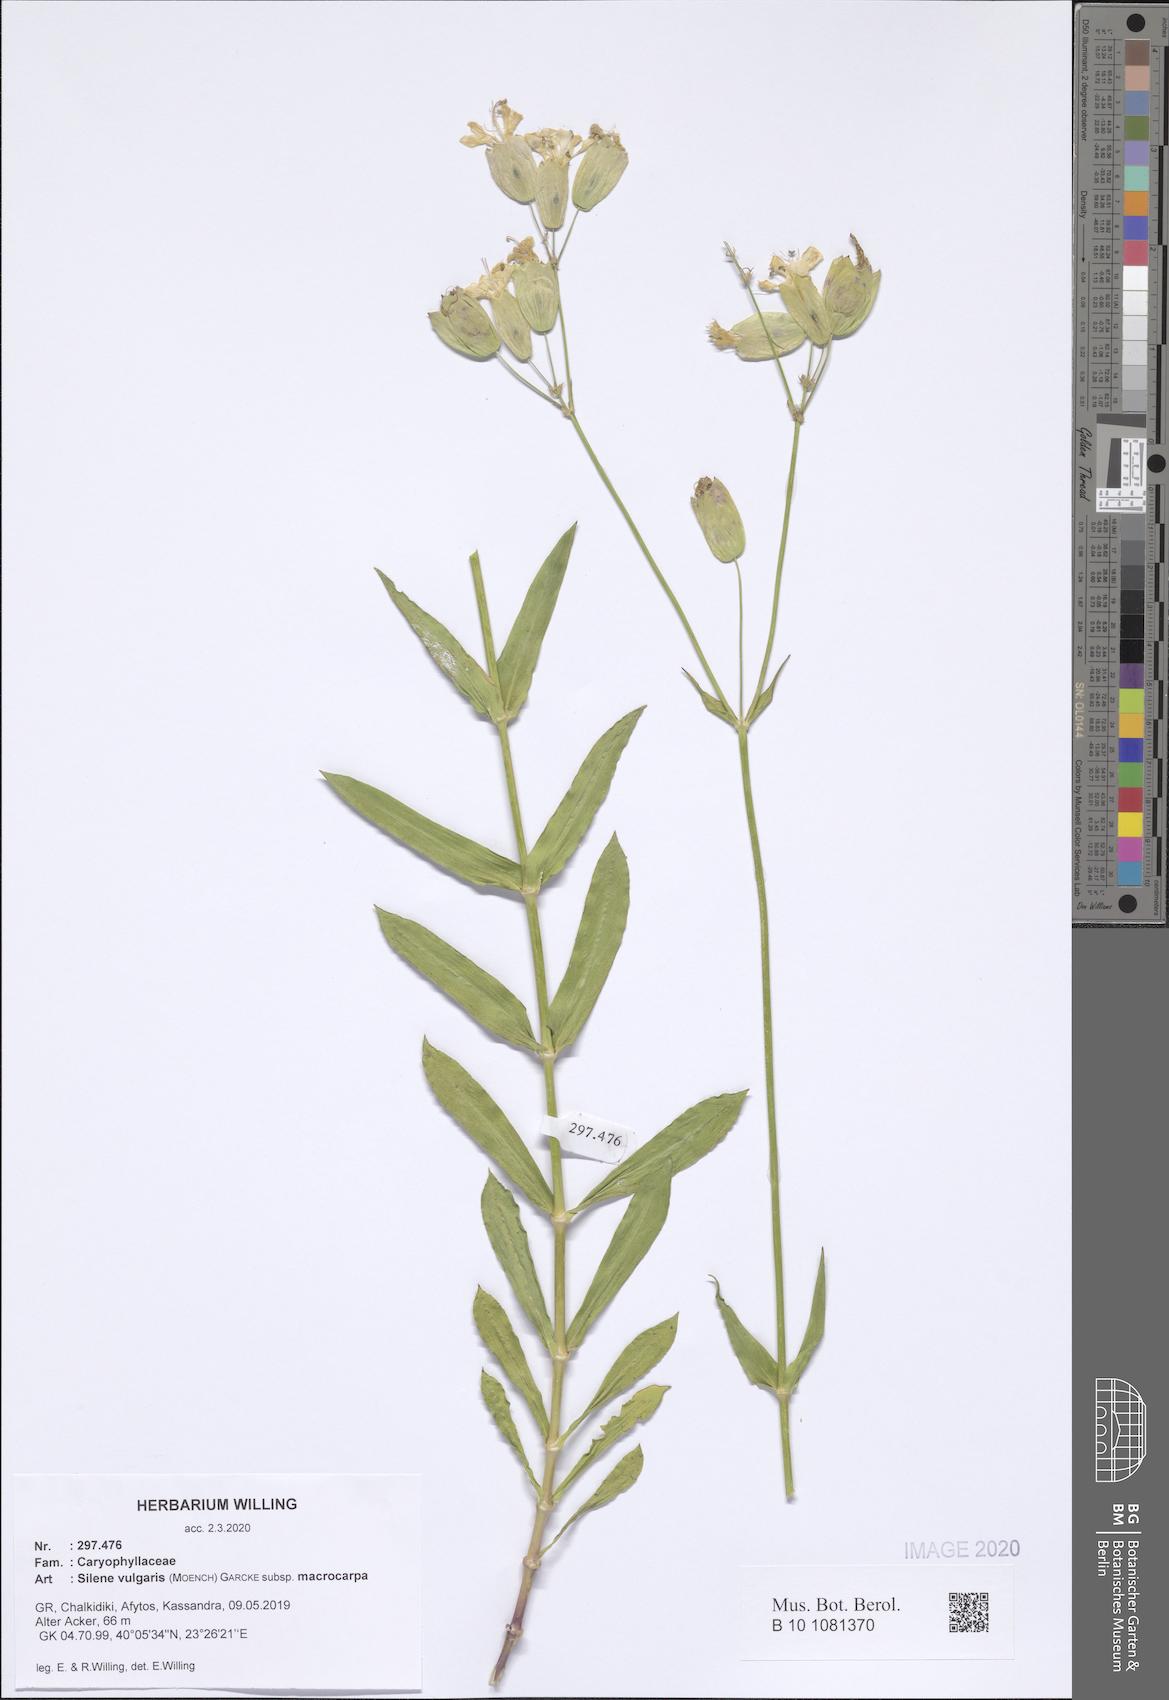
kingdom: Plantae
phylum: Tracheophyta
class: Magnoliopsida
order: Caryophyllales
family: Caryophyllaceae
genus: Silene
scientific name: Silene vulgaris
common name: Bladder campion
